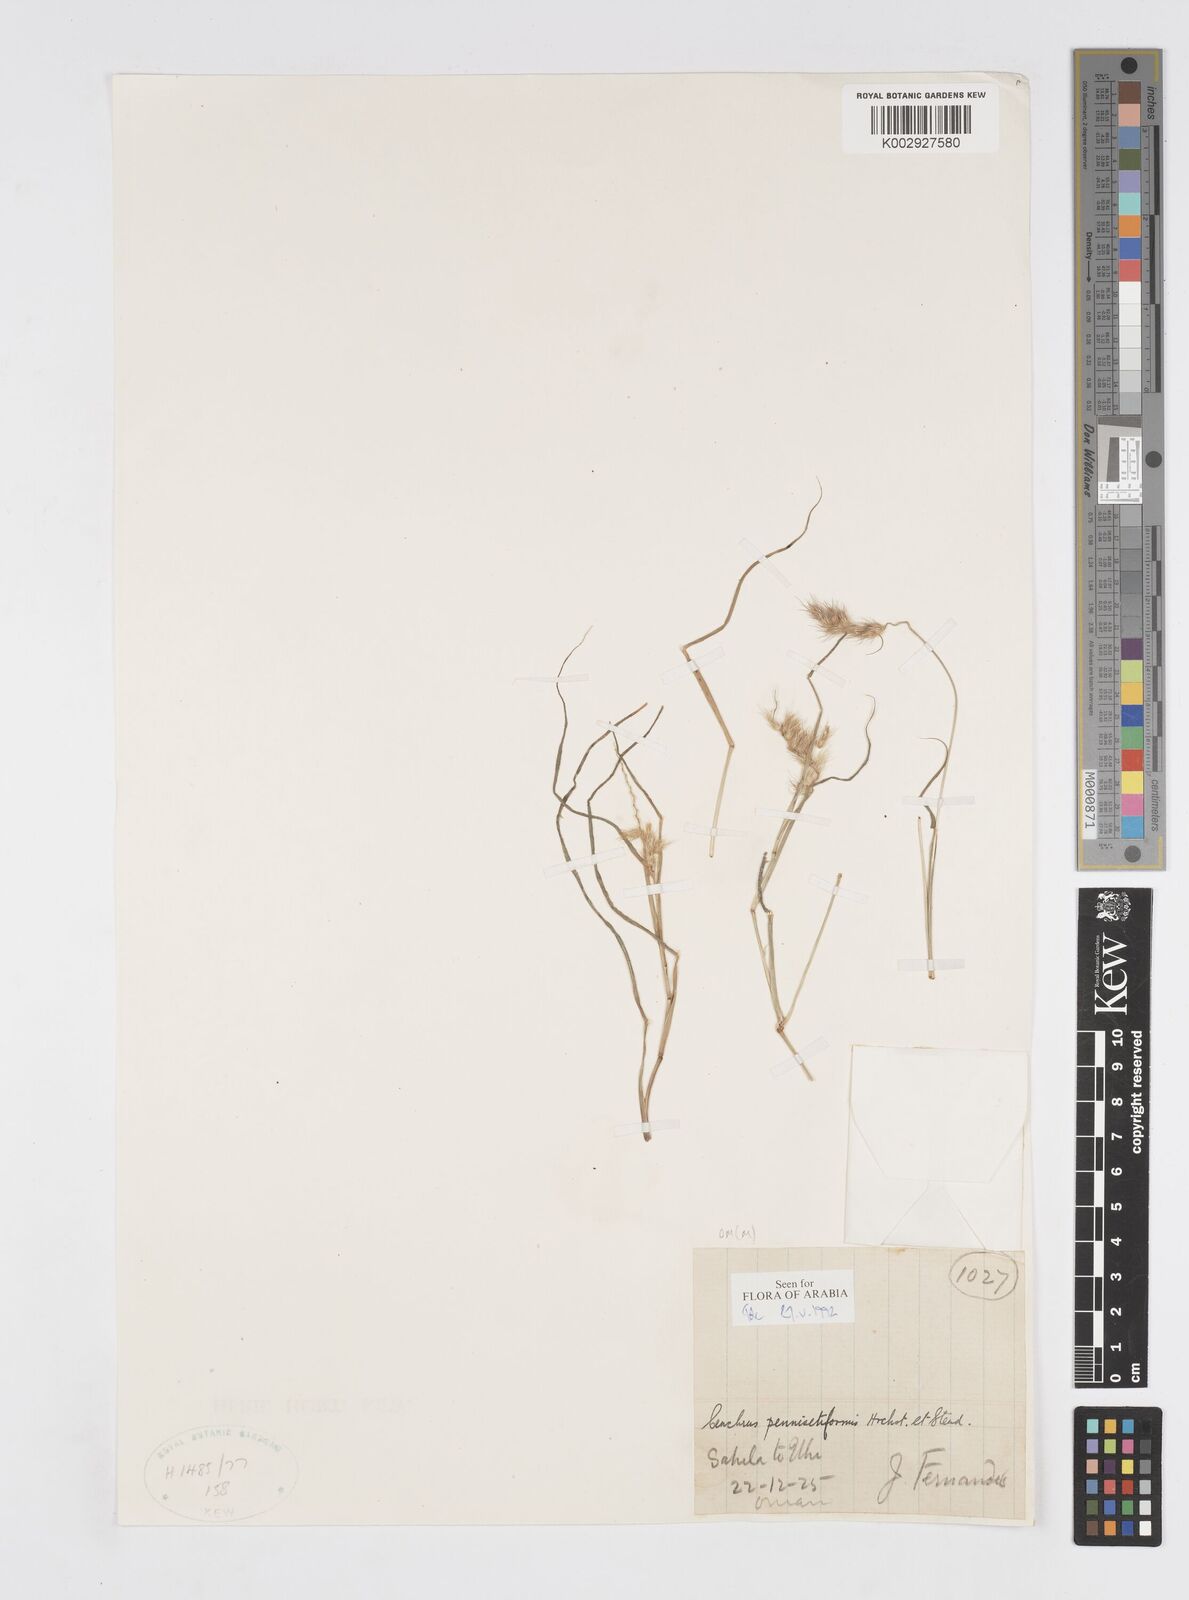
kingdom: Plantae
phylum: Tracheophyta
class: Liliopsida
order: Poales
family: Poaceae
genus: Cenchrus
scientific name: Cenchrus pennisetiformis
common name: Cloncurry
